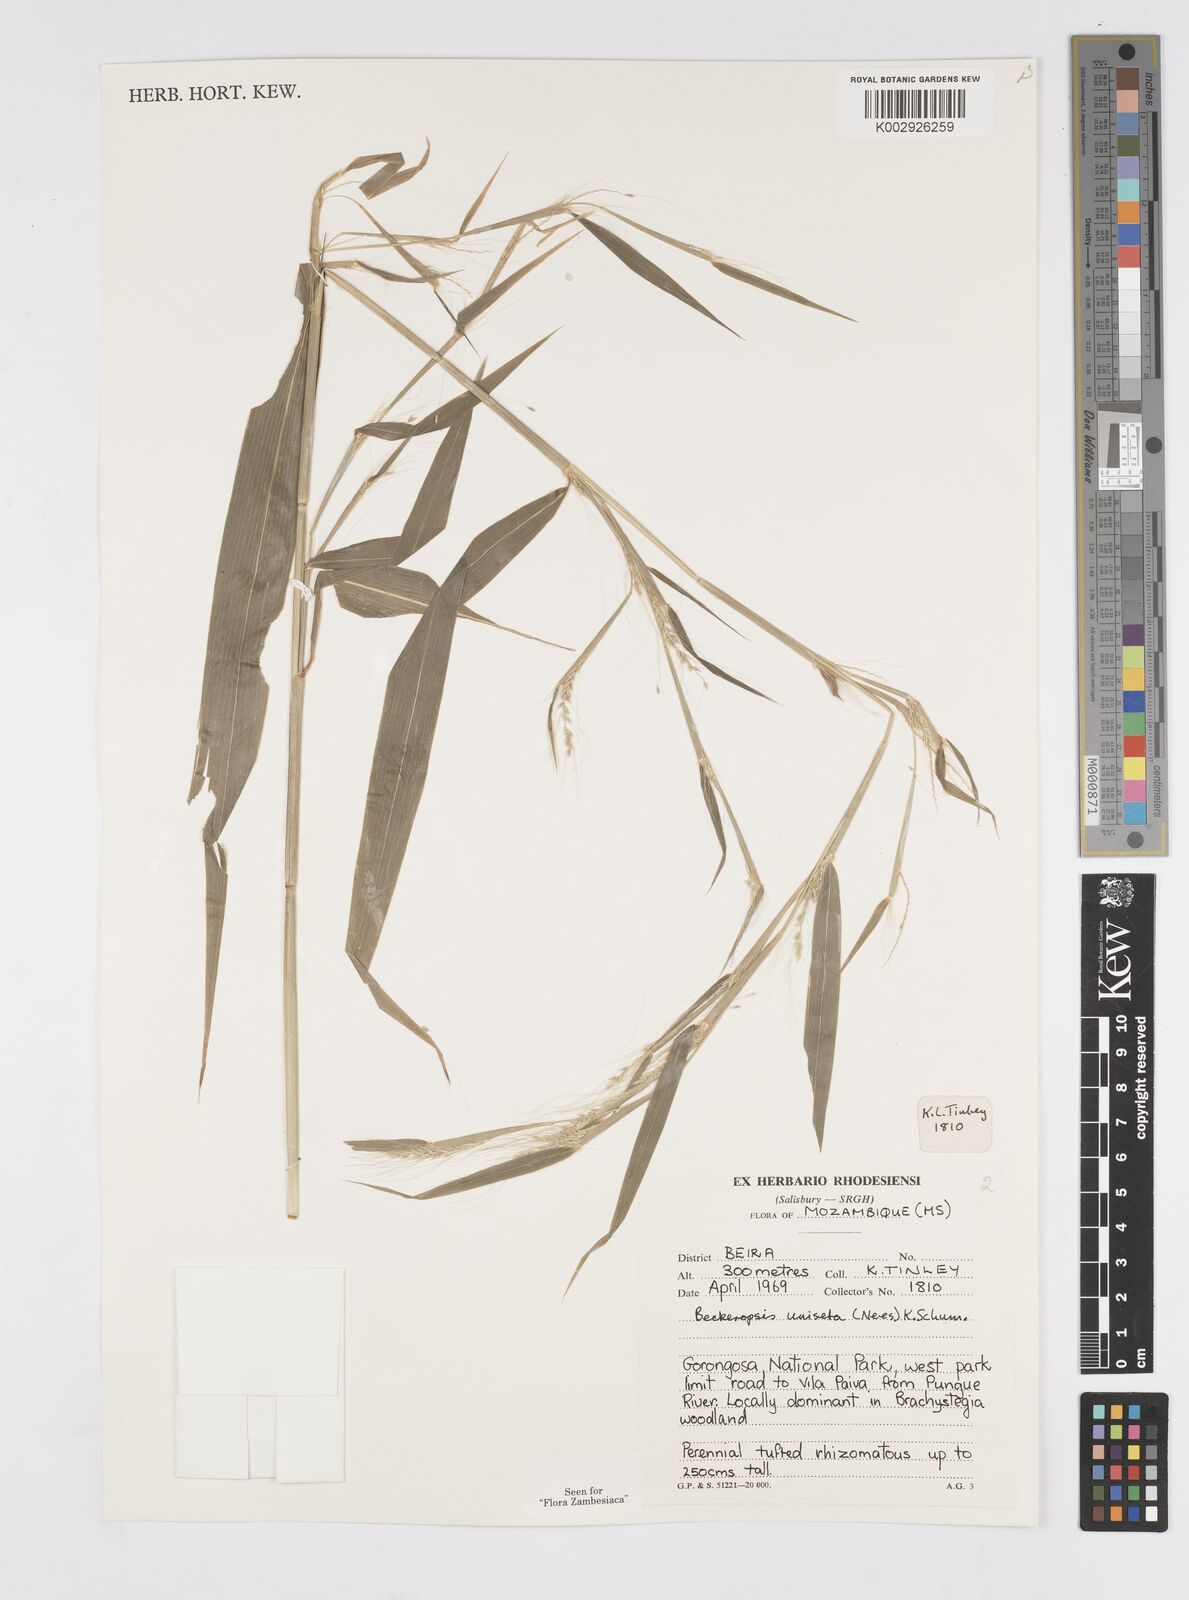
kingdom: Plantae
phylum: Tracheophyta
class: Liliopsida
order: Poales
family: Poaceae
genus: Cenchrus
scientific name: Cenchrus unisetus
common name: Natal grass
